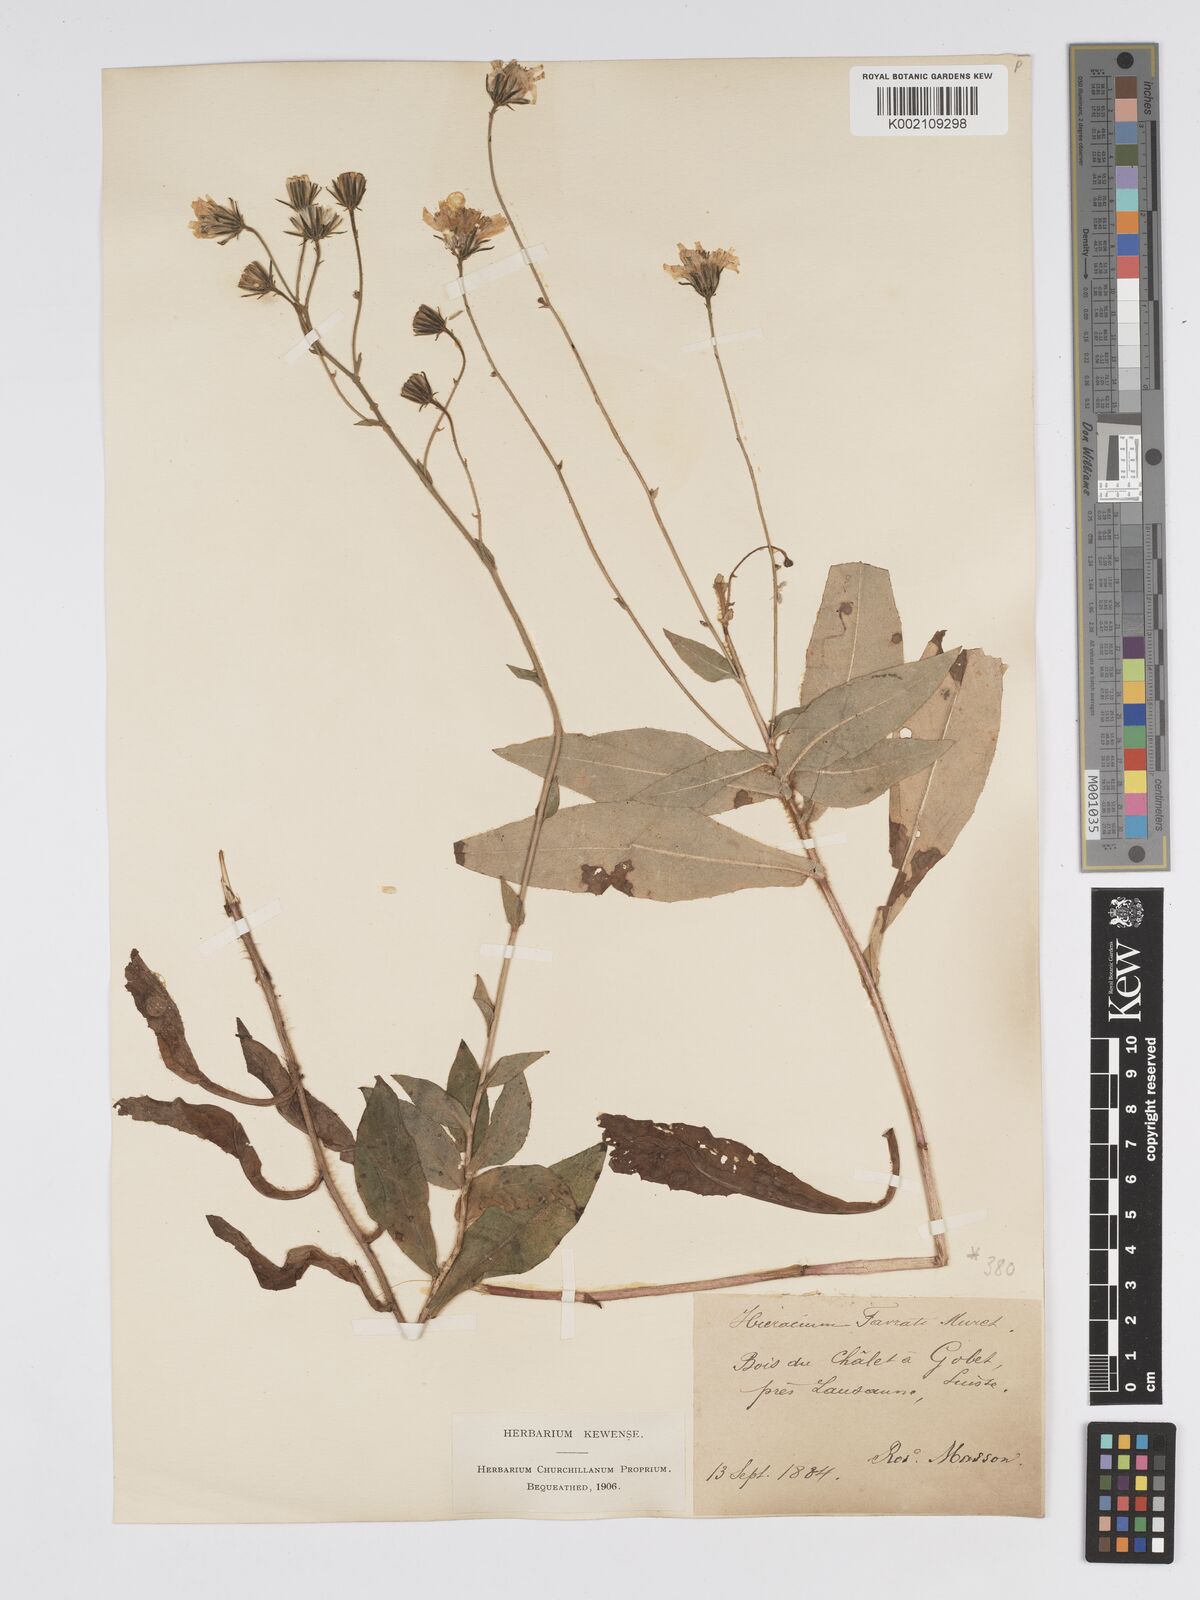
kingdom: Plantae
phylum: Tracheophyta
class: Magnoliopsida
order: Asterales
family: Asteraceae
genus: Hieracium
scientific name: Hieracium favratii
